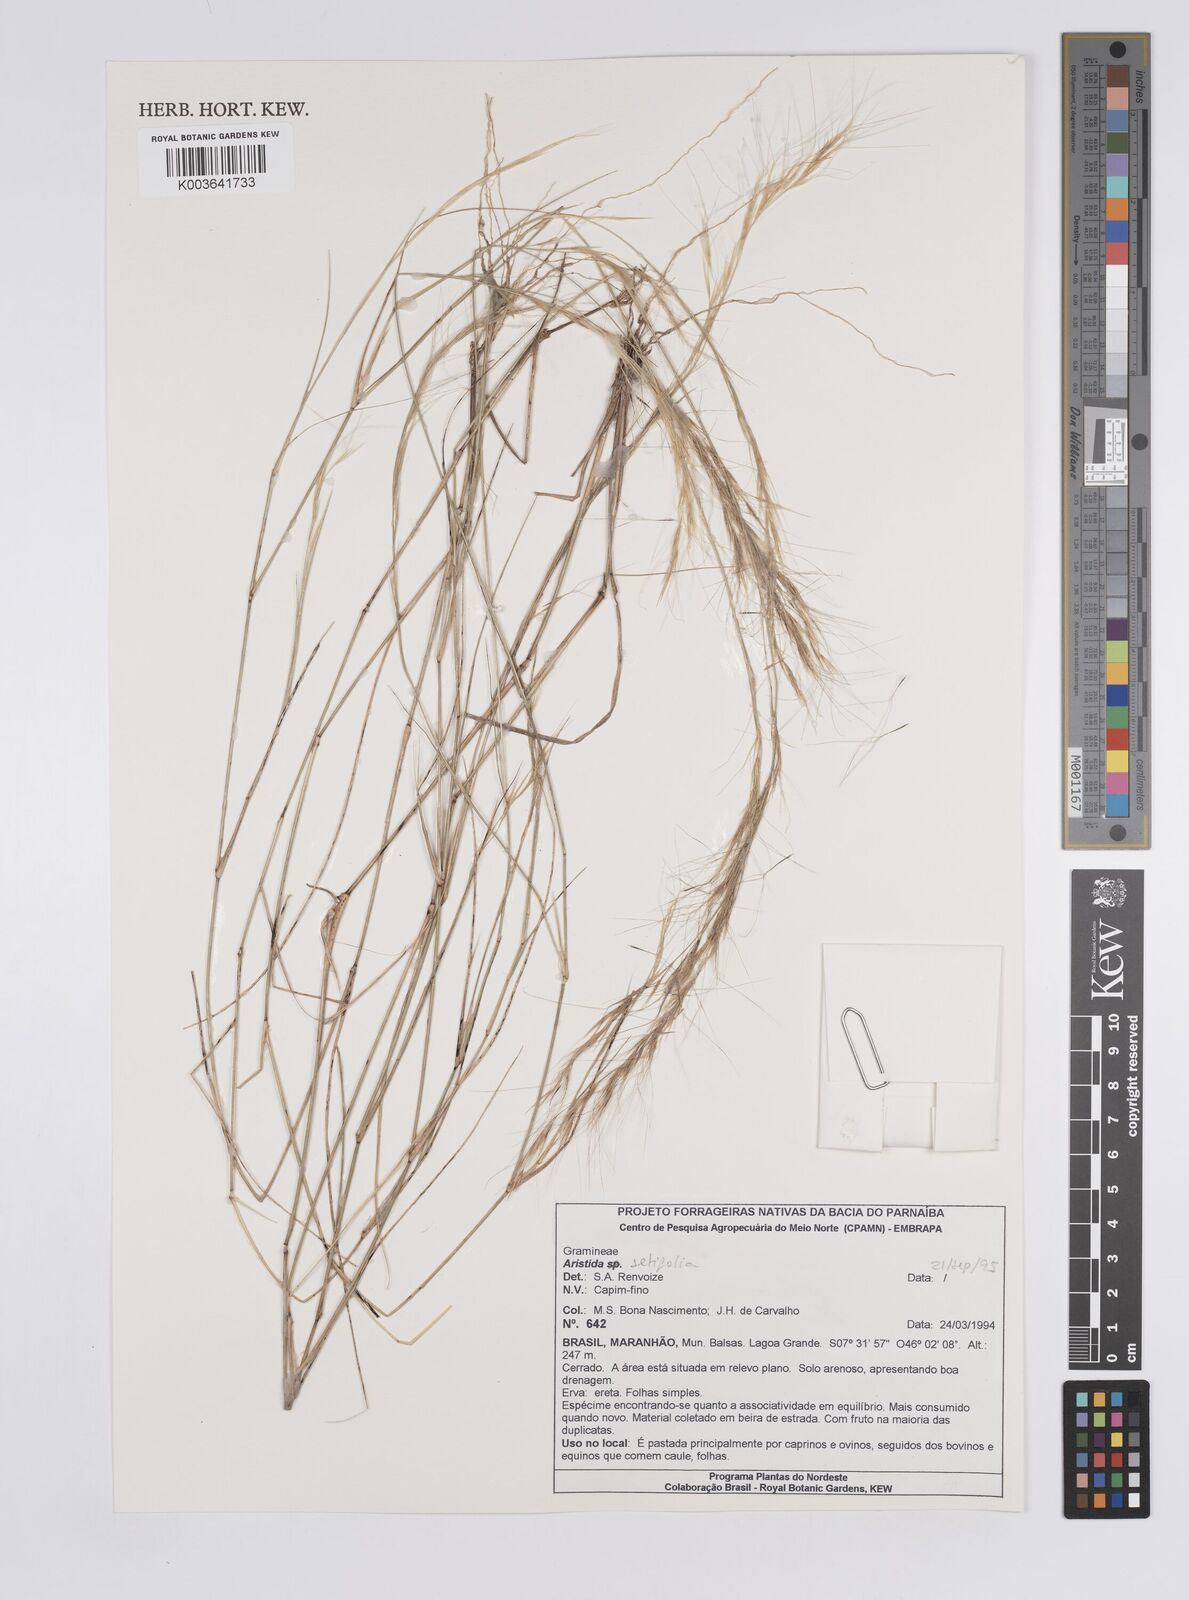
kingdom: Plantae
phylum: Tracheophyta
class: Liliopsida
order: Poales
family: Poaceae
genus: Aristida
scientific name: Aristida setifolia
